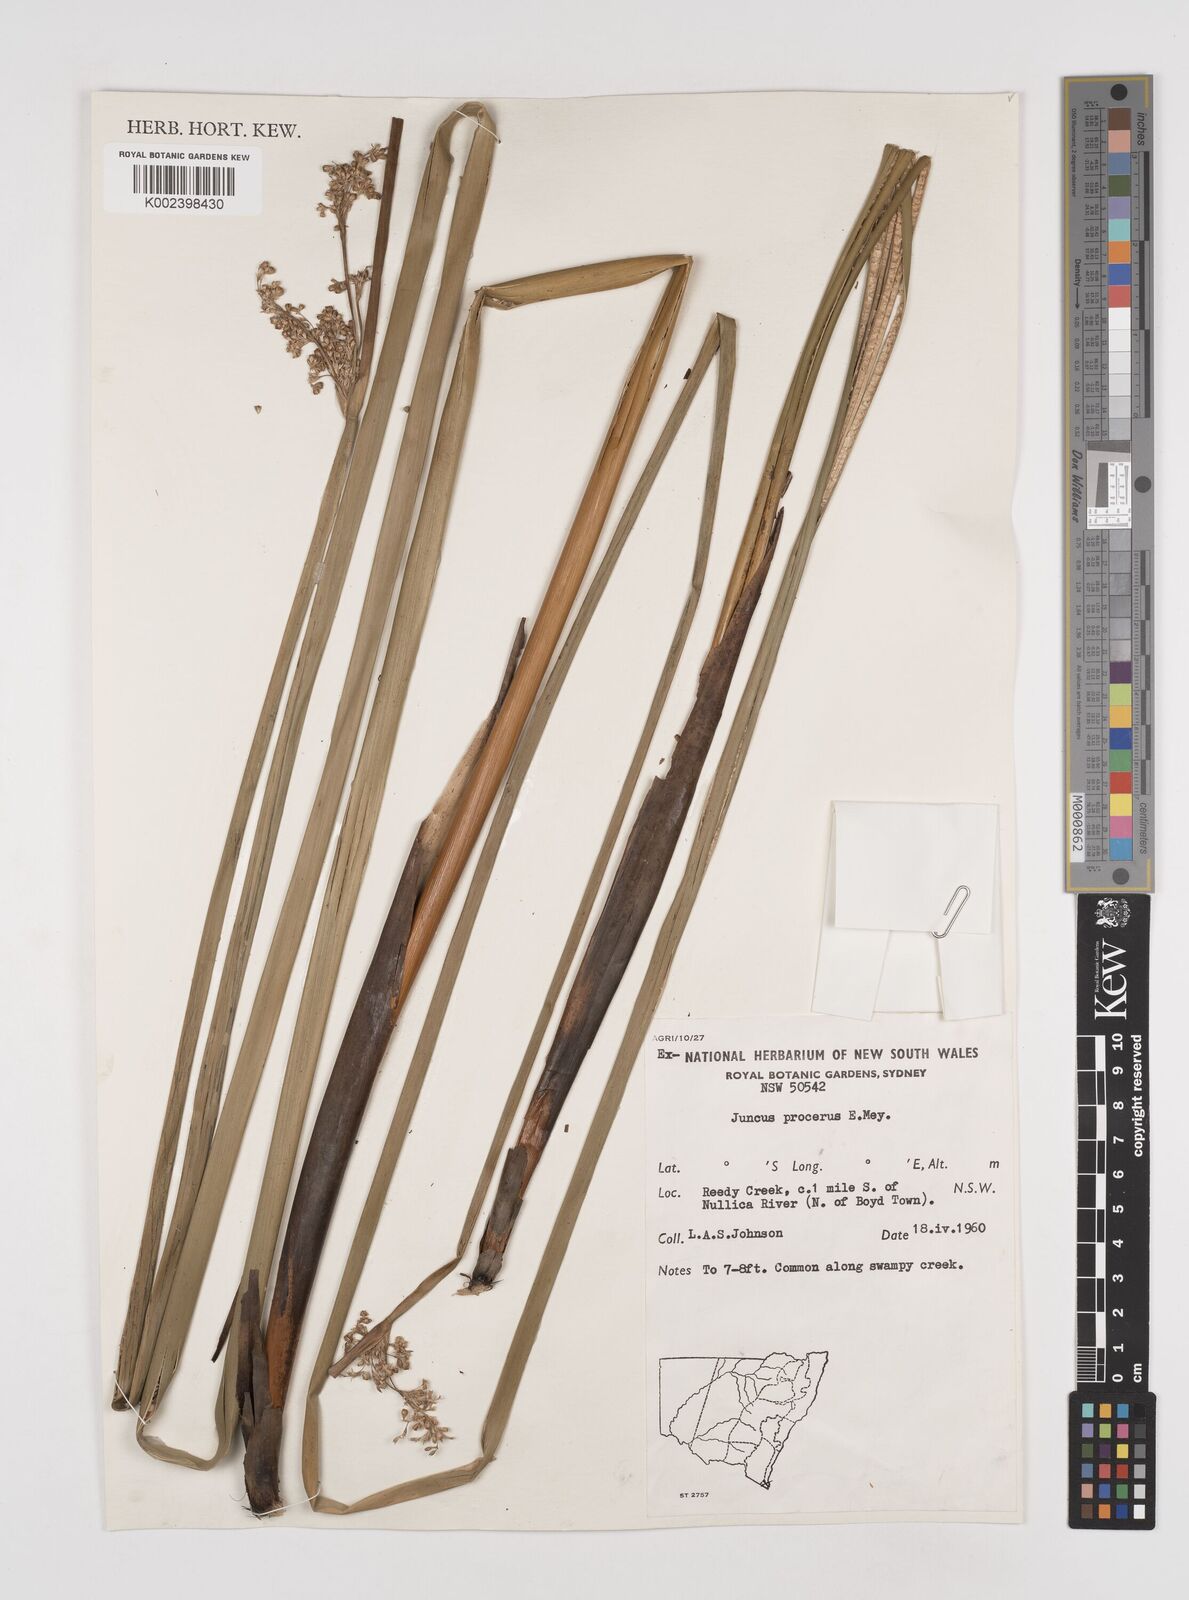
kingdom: Plantae
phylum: Tracheophyta
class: Liliopsida
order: Poales
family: Juncaceae
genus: Juncus
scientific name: Juncus procerus
